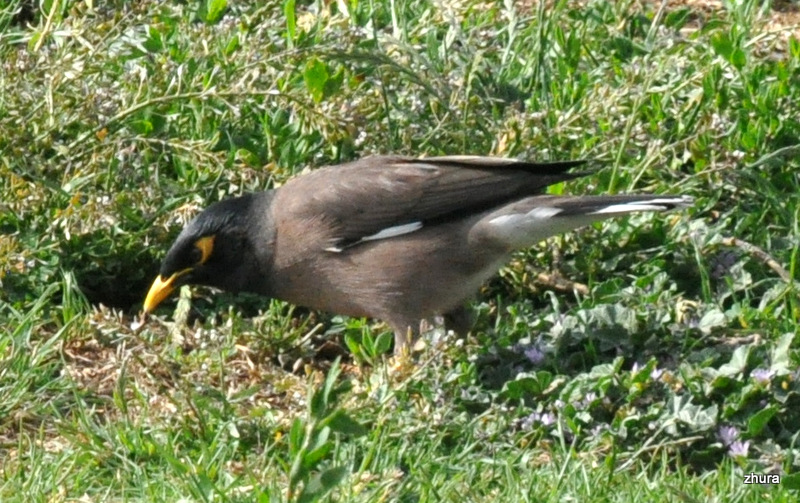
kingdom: Animalia
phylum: Chordata
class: Aves
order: Passeriformes
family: Sturnidae
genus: Acridotheres
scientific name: Acridotheres tristis
